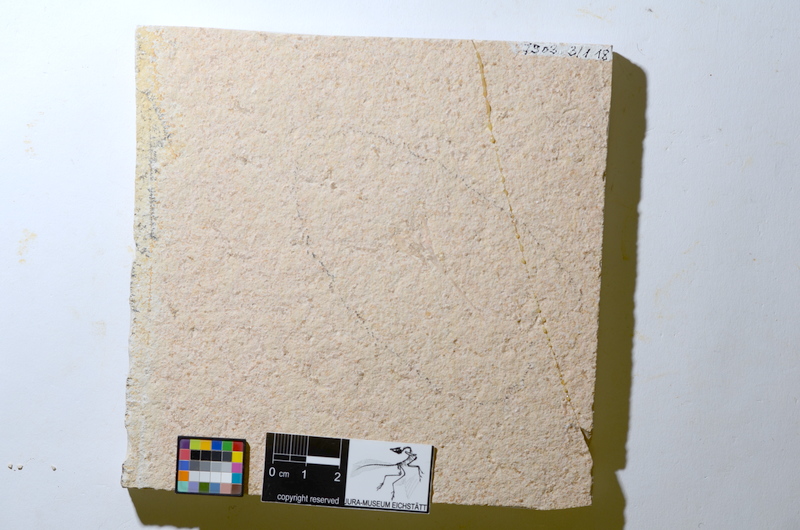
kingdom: Animalia
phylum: Chordata
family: Aspidorhynchidae
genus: Aspidorhynchus
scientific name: Aspidorhynchus acutirostris
